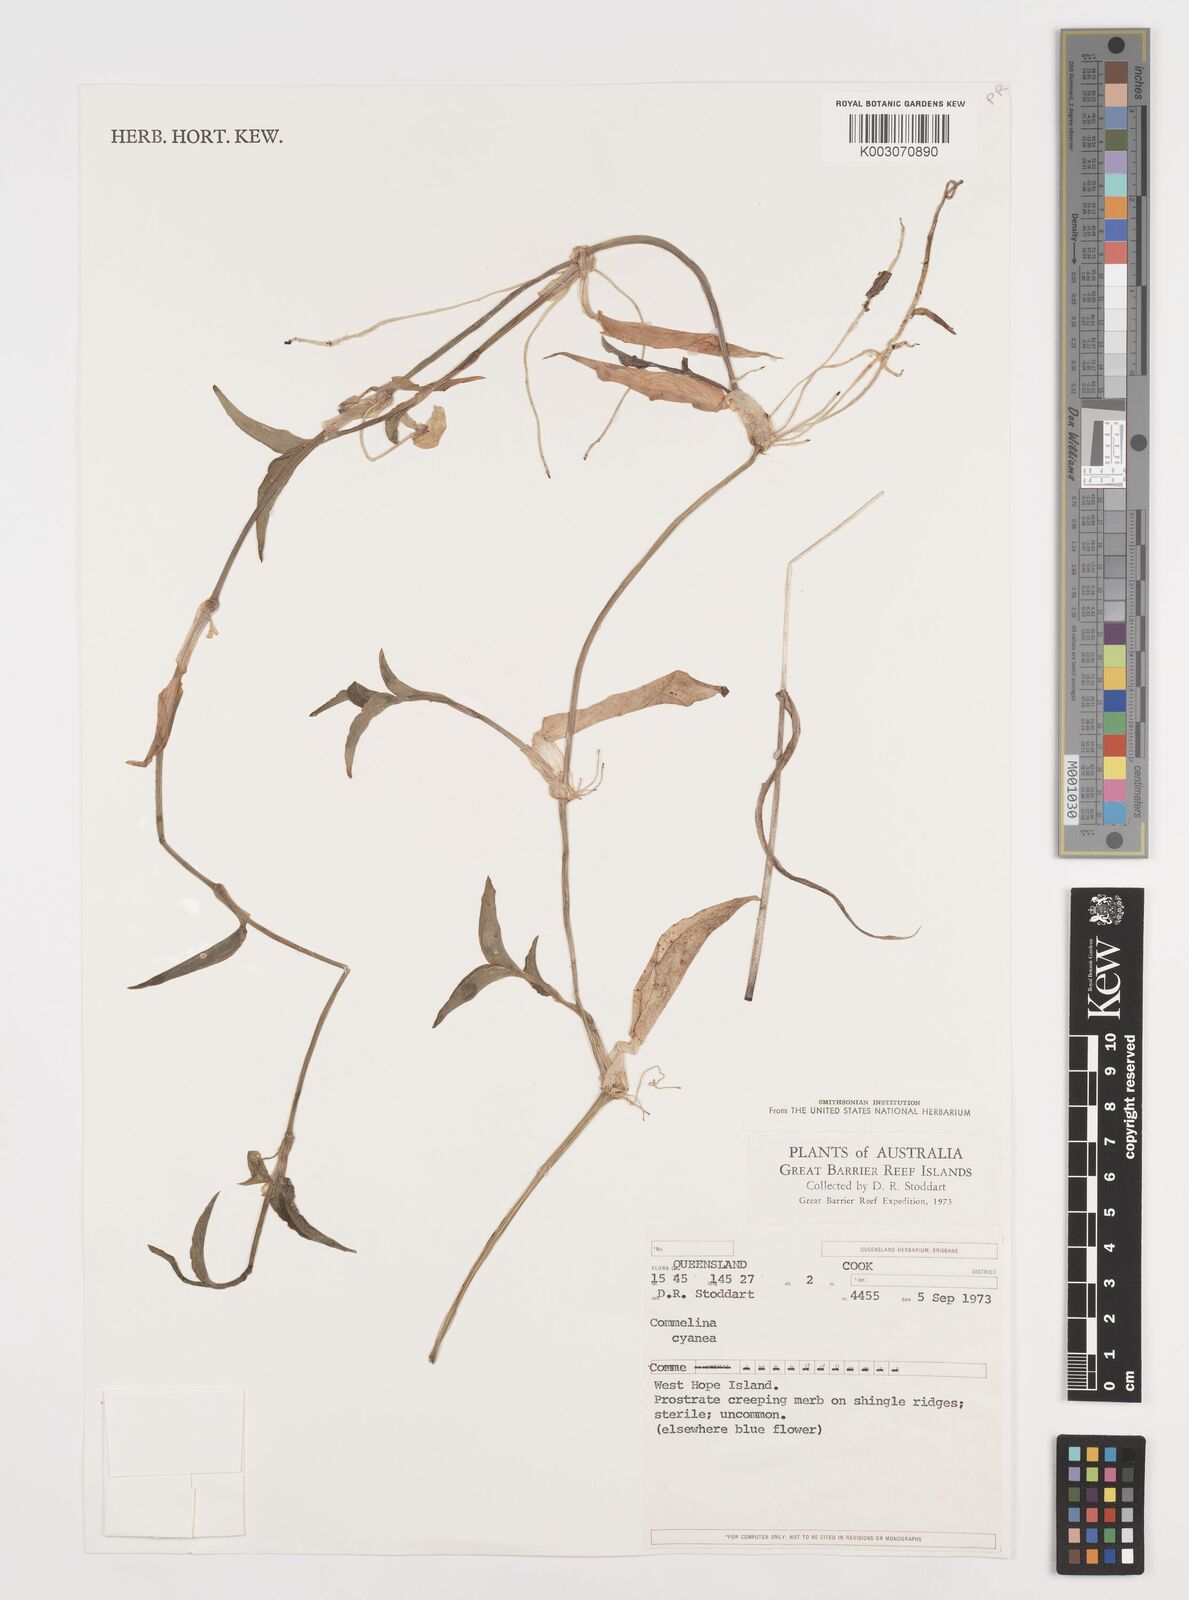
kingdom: Plantae
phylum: Tracheophyta
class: Liliopsida
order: Commelinales
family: Commelinaceae
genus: Commelina
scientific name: Commelina cyanea
